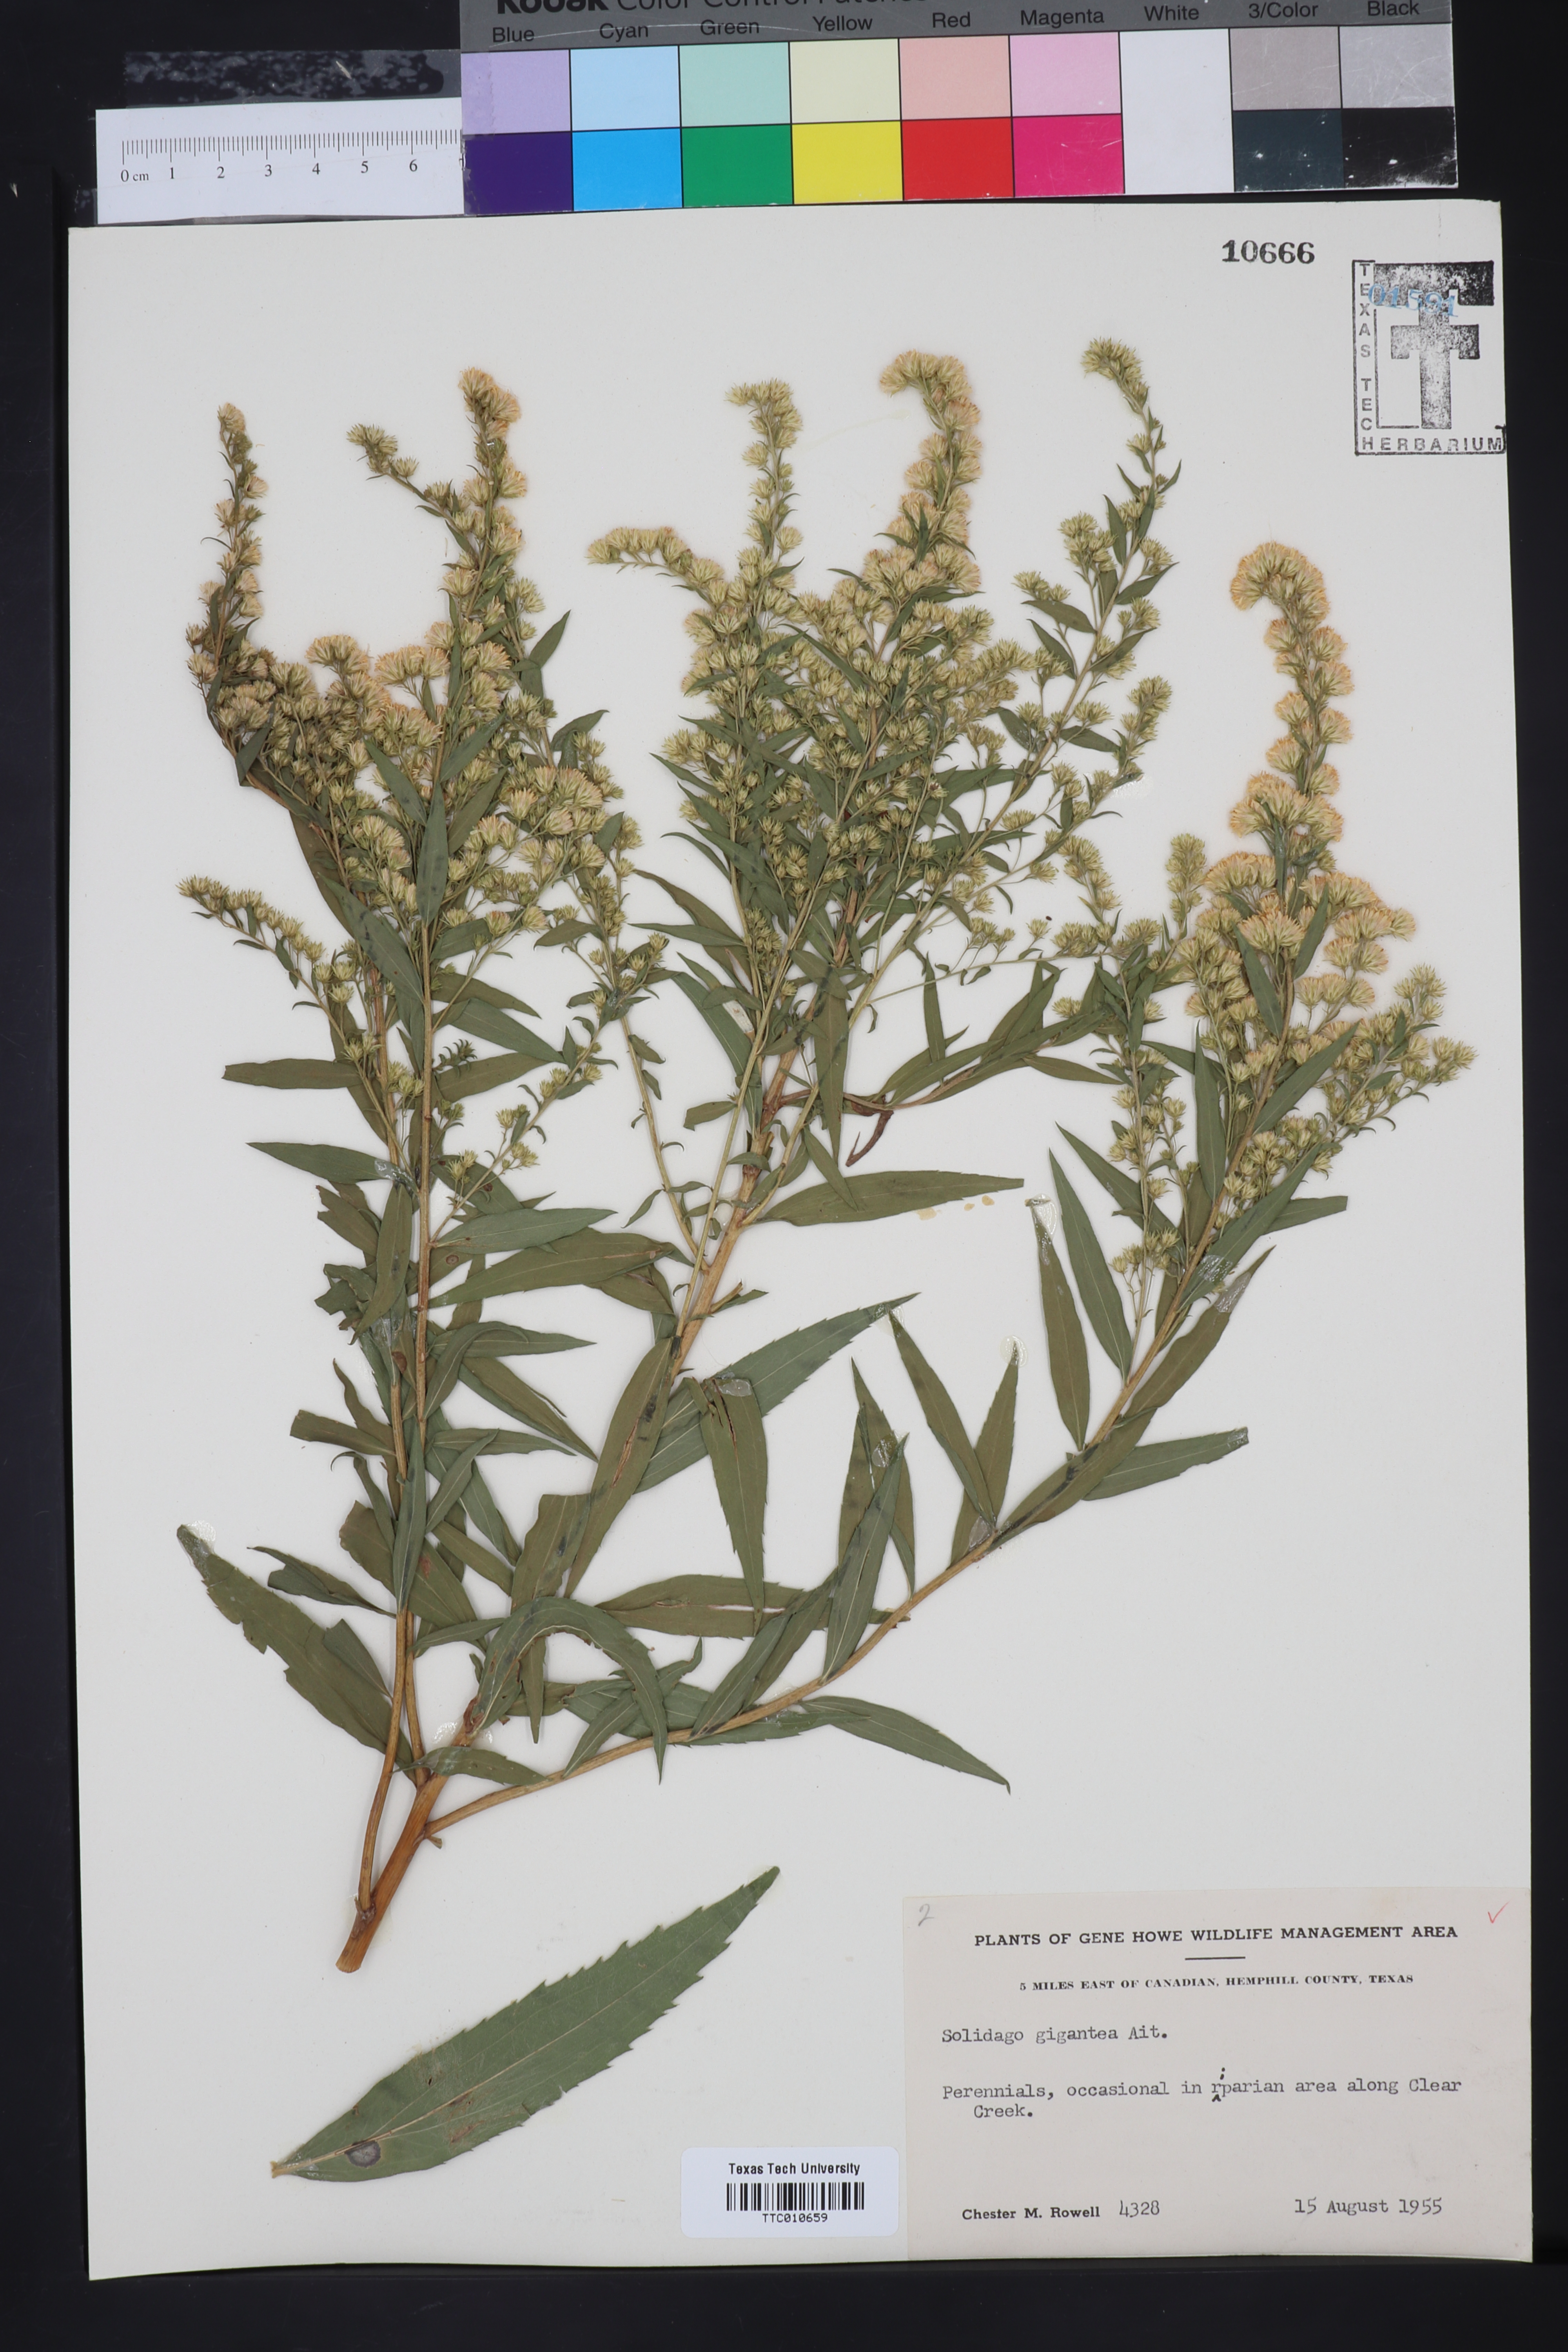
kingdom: Plantae
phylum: Tracheophyta
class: Magnoliopsida
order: Asterales
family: Asteraceae
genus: Solidago
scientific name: Solidago gigantea
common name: Giant goldenrod
